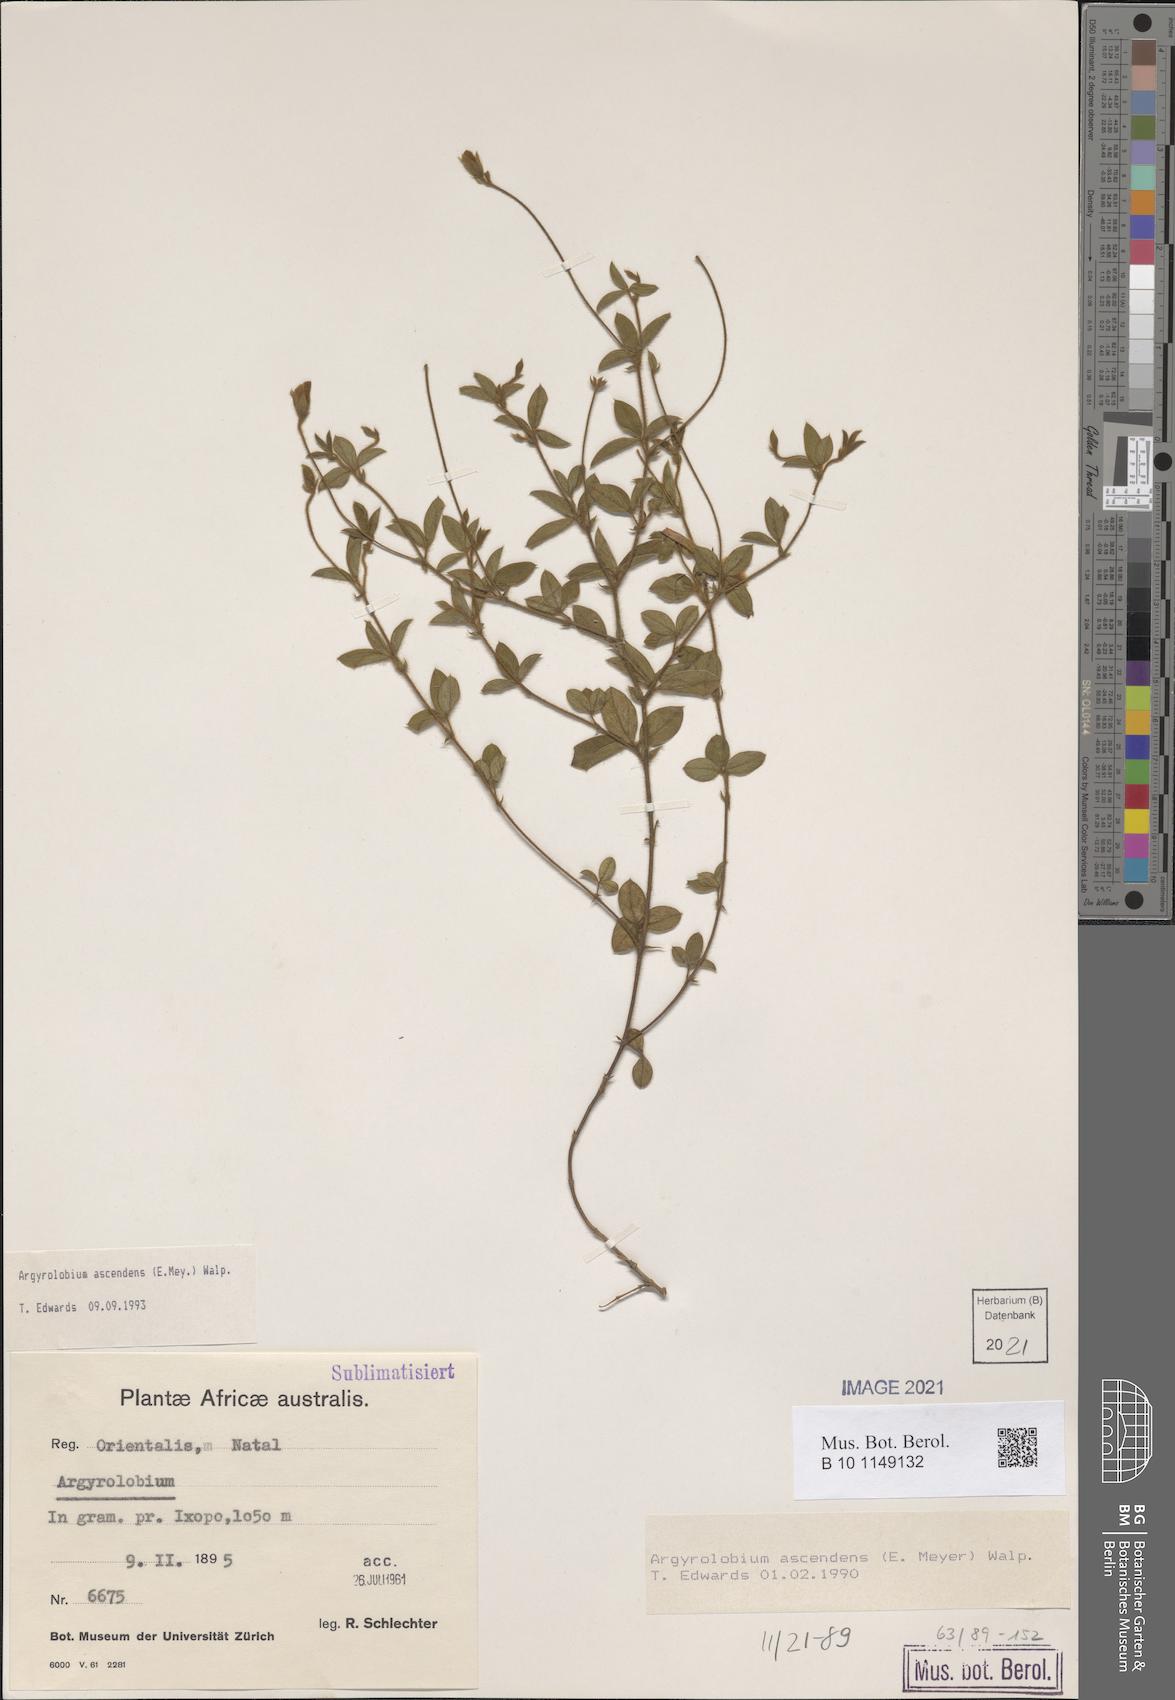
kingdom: Plantae
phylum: Tracheophyta
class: Magnoliopsida
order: Fabales
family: Fabaceae
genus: Argyrolobium
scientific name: Argyrolobium ascendens
